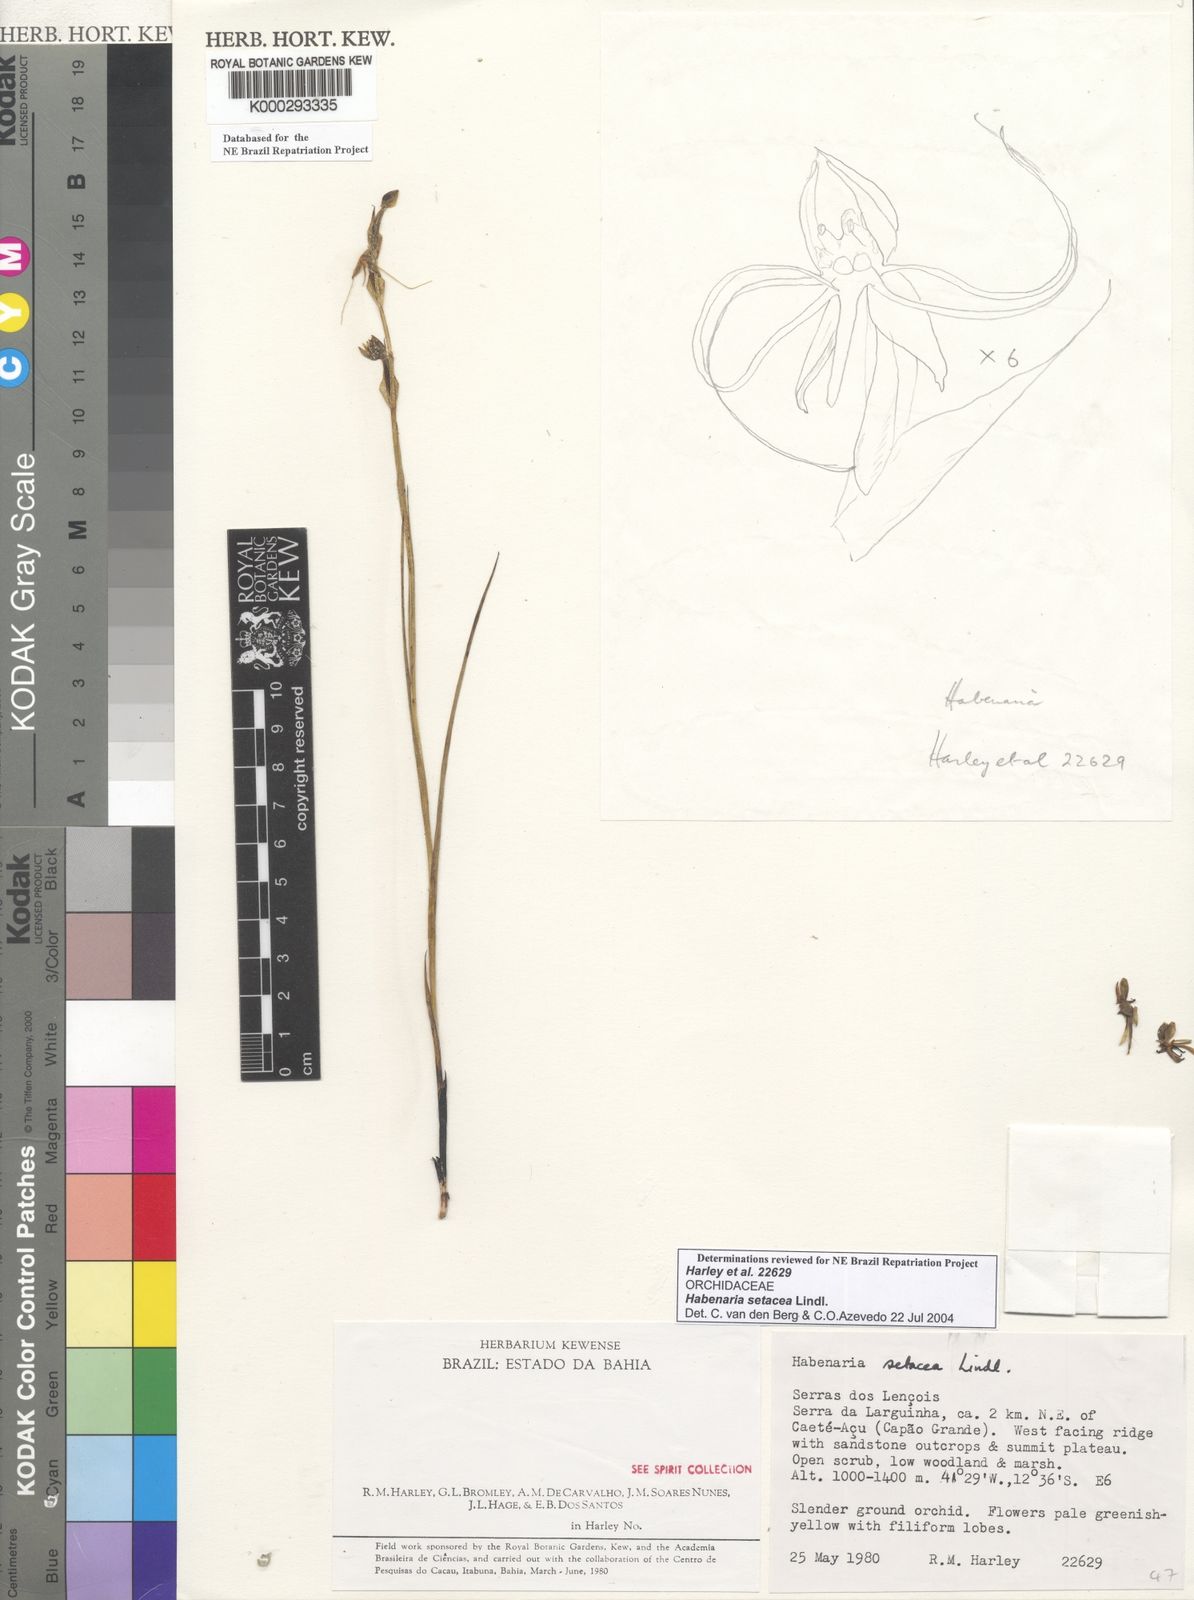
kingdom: Plantae
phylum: Tracheophyta
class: Liliopsida
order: Asparagales
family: Orchidaceae
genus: Habenaria
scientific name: Habenaria setacea
